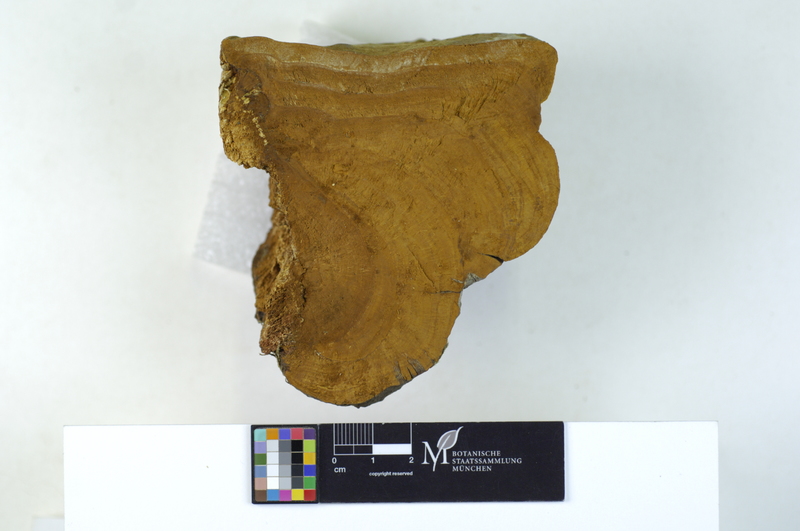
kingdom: Fungi
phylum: Basidiomycota
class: Agaricomycetes
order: Hymenochaetales
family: Hymenochaetaceae
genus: Fomitiporia
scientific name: Fomitiporia robusta
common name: Robust bracket
